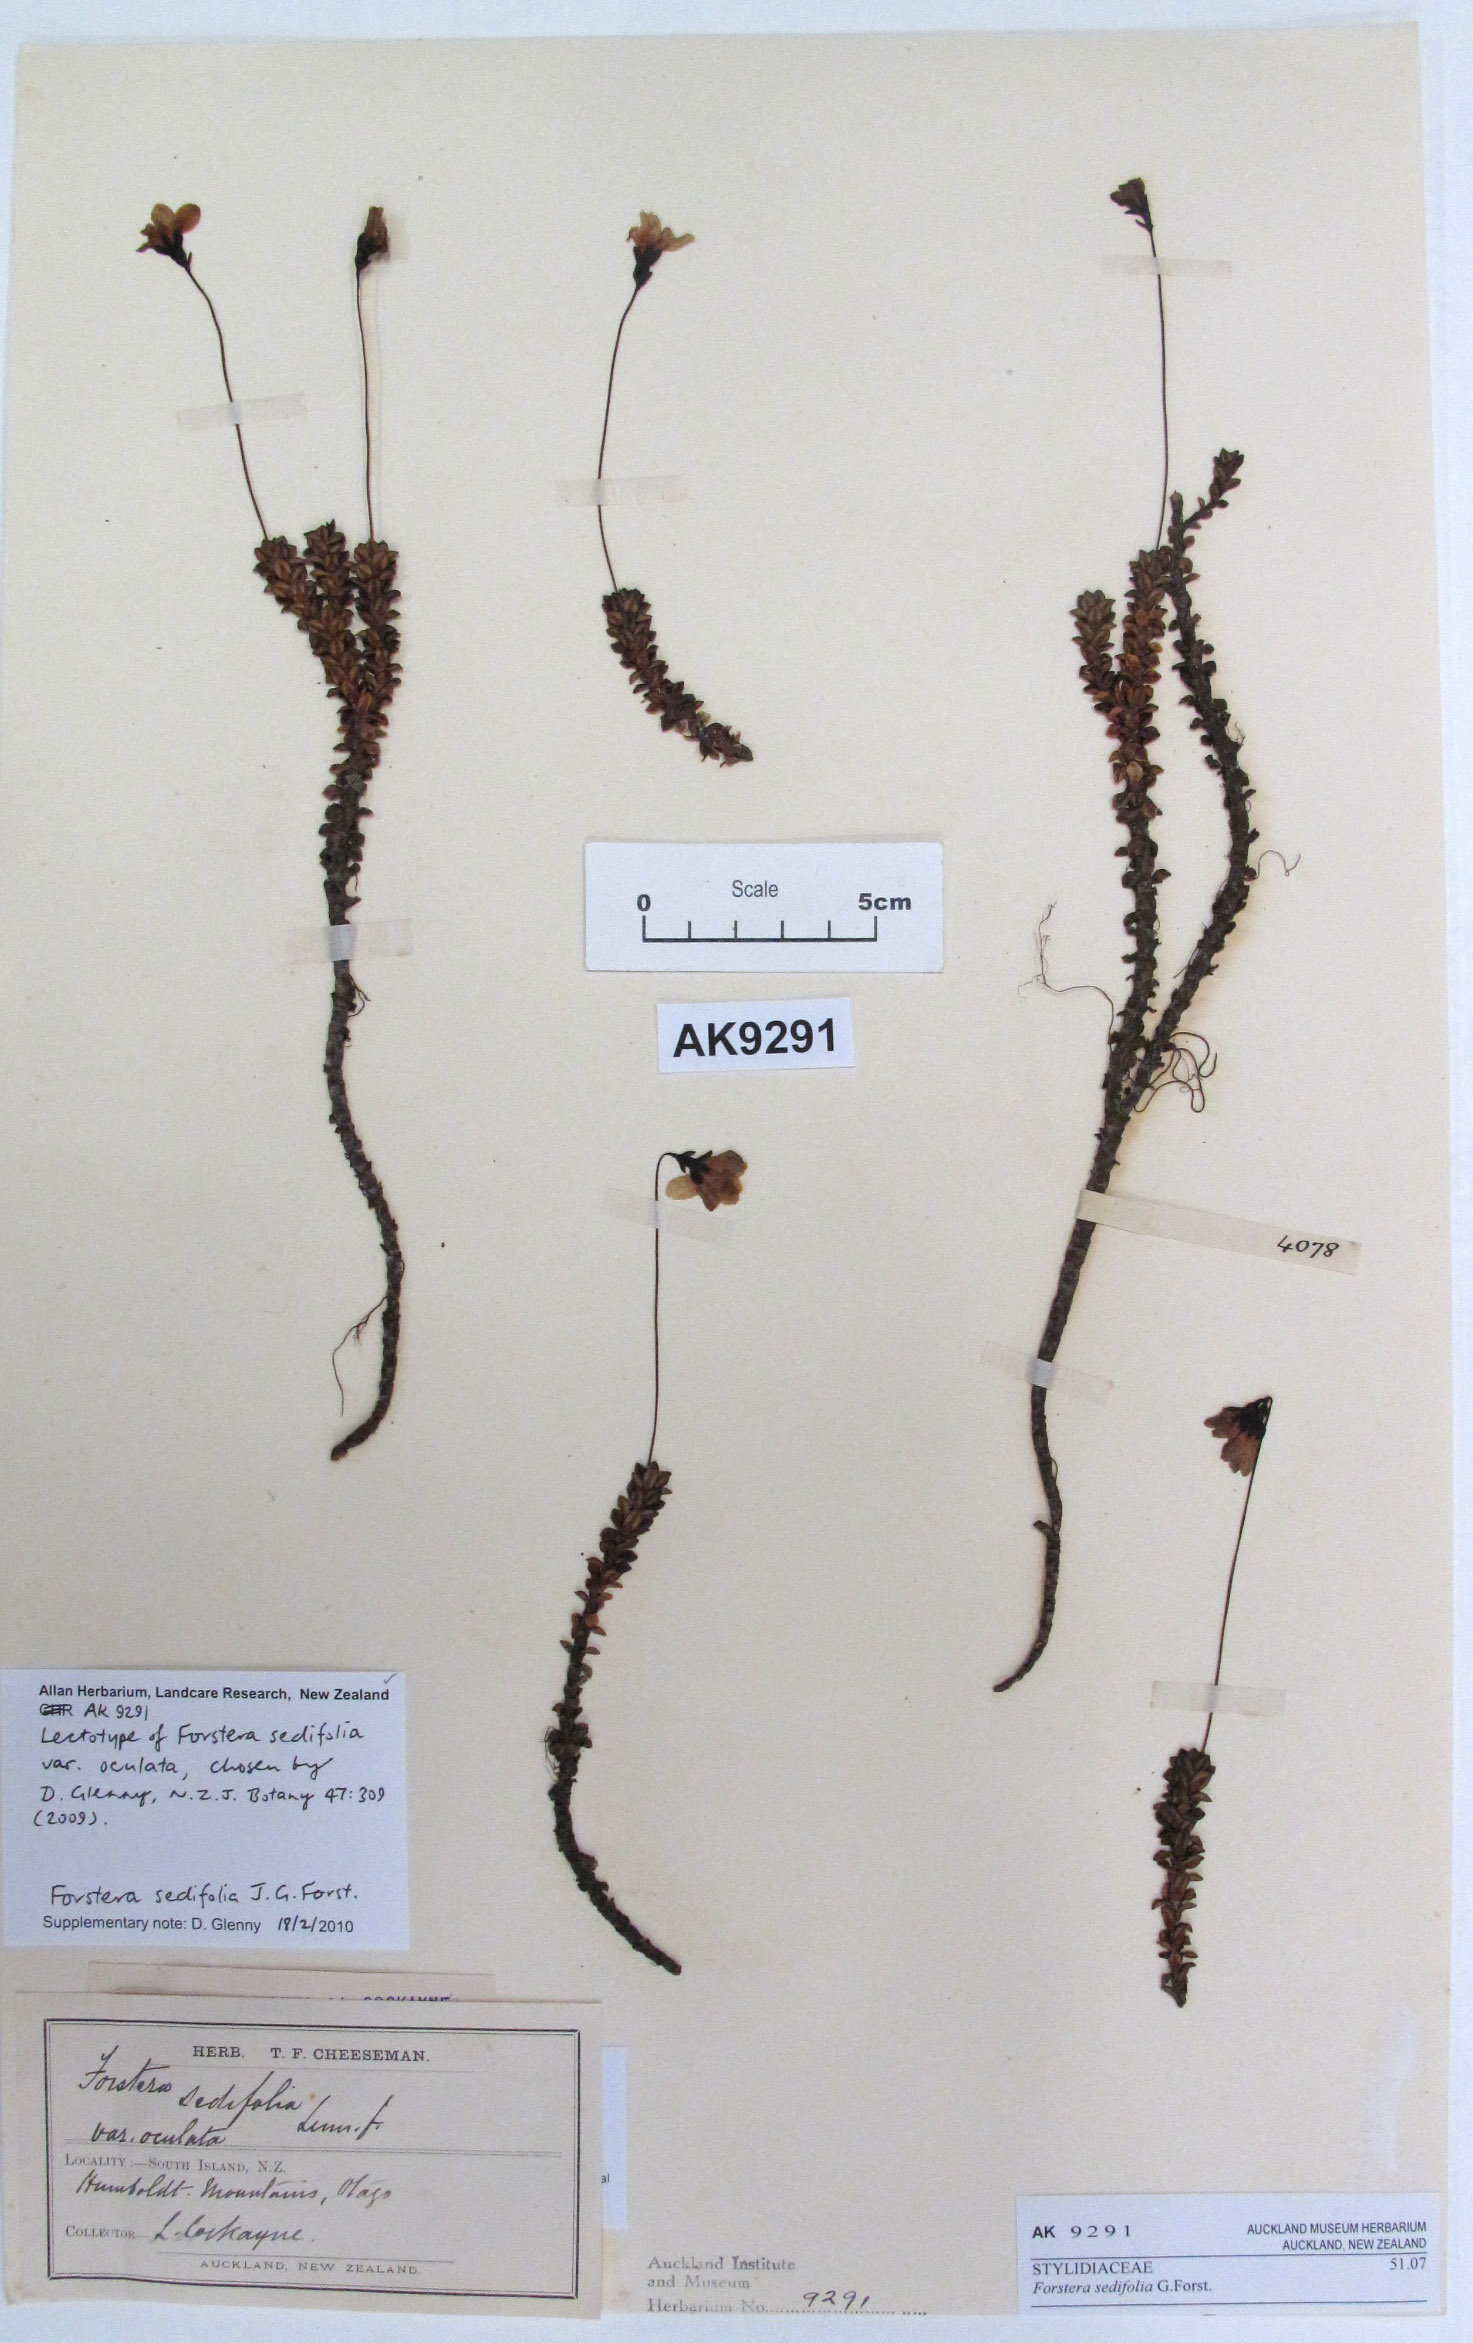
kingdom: Plantae
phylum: Tracheophyta
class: Magnoliopsida
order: Asterales
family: Stylidiaceae
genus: Forstera
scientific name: Forstera sedifolia
